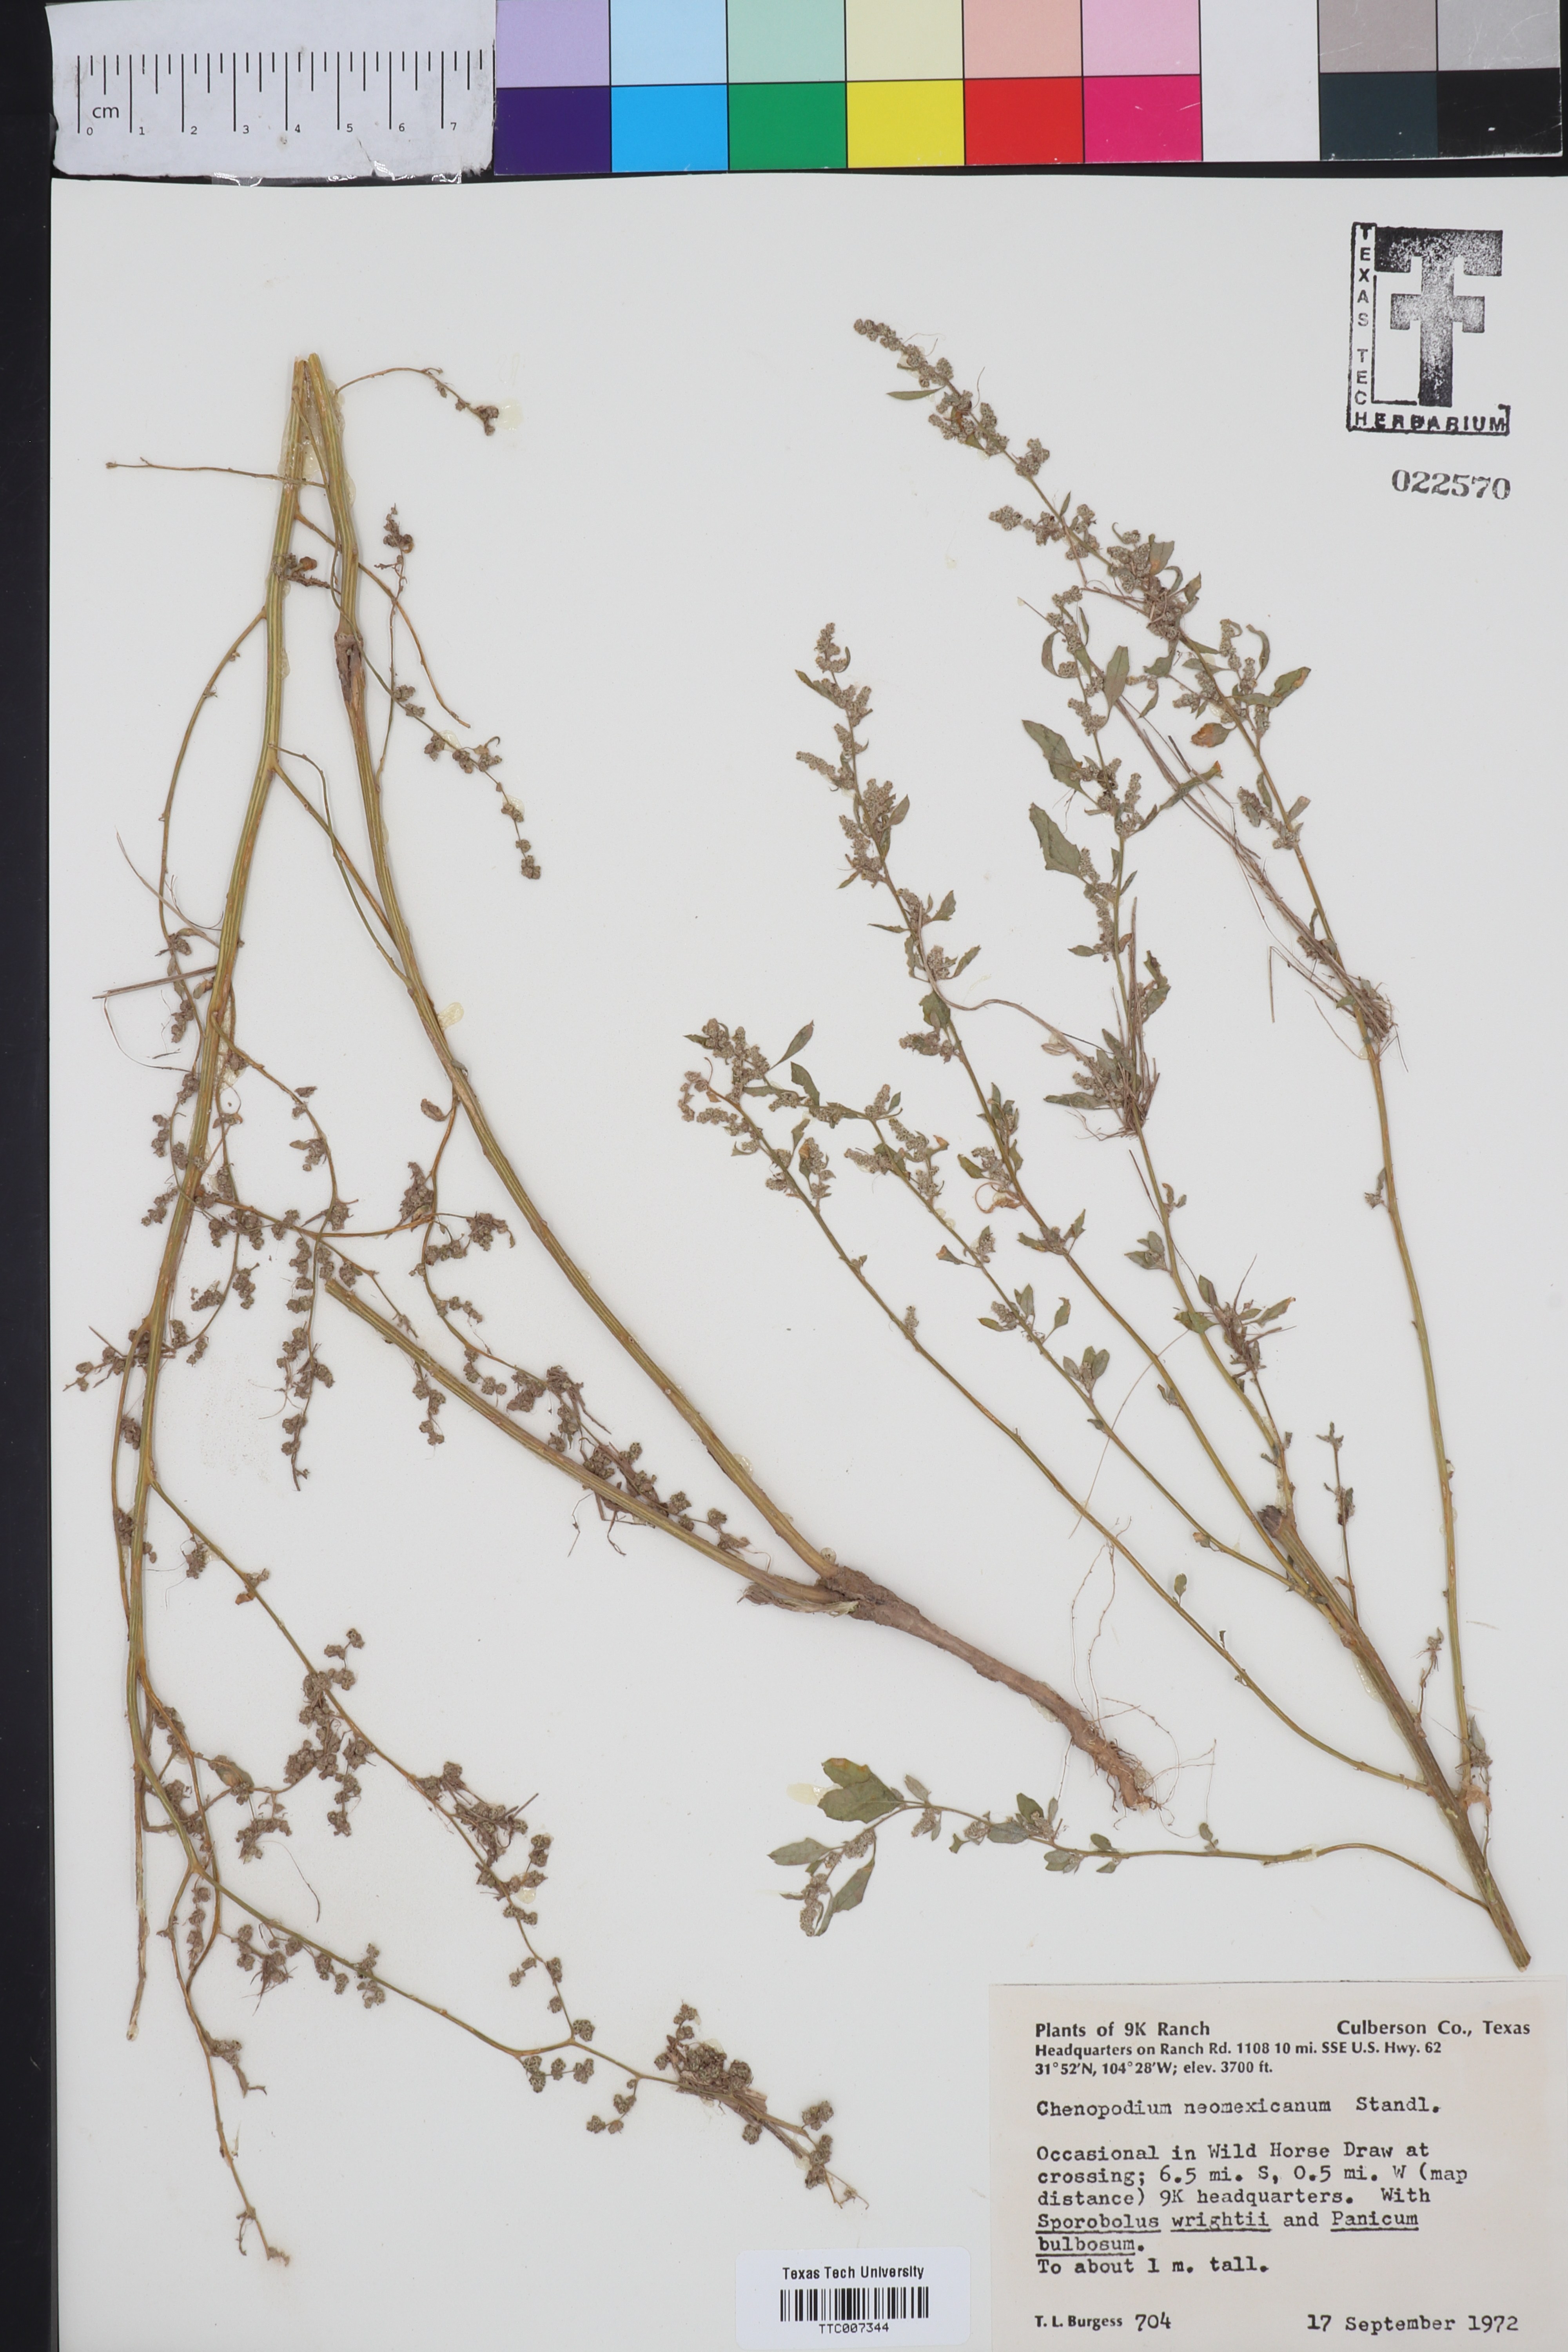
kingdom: Plantae
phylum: Tracheophyta
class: Magnoliopsida
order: Caryophyllales
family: Amaranthaceae
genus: Chenopodium
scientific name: Chenopodium neomexicanum
